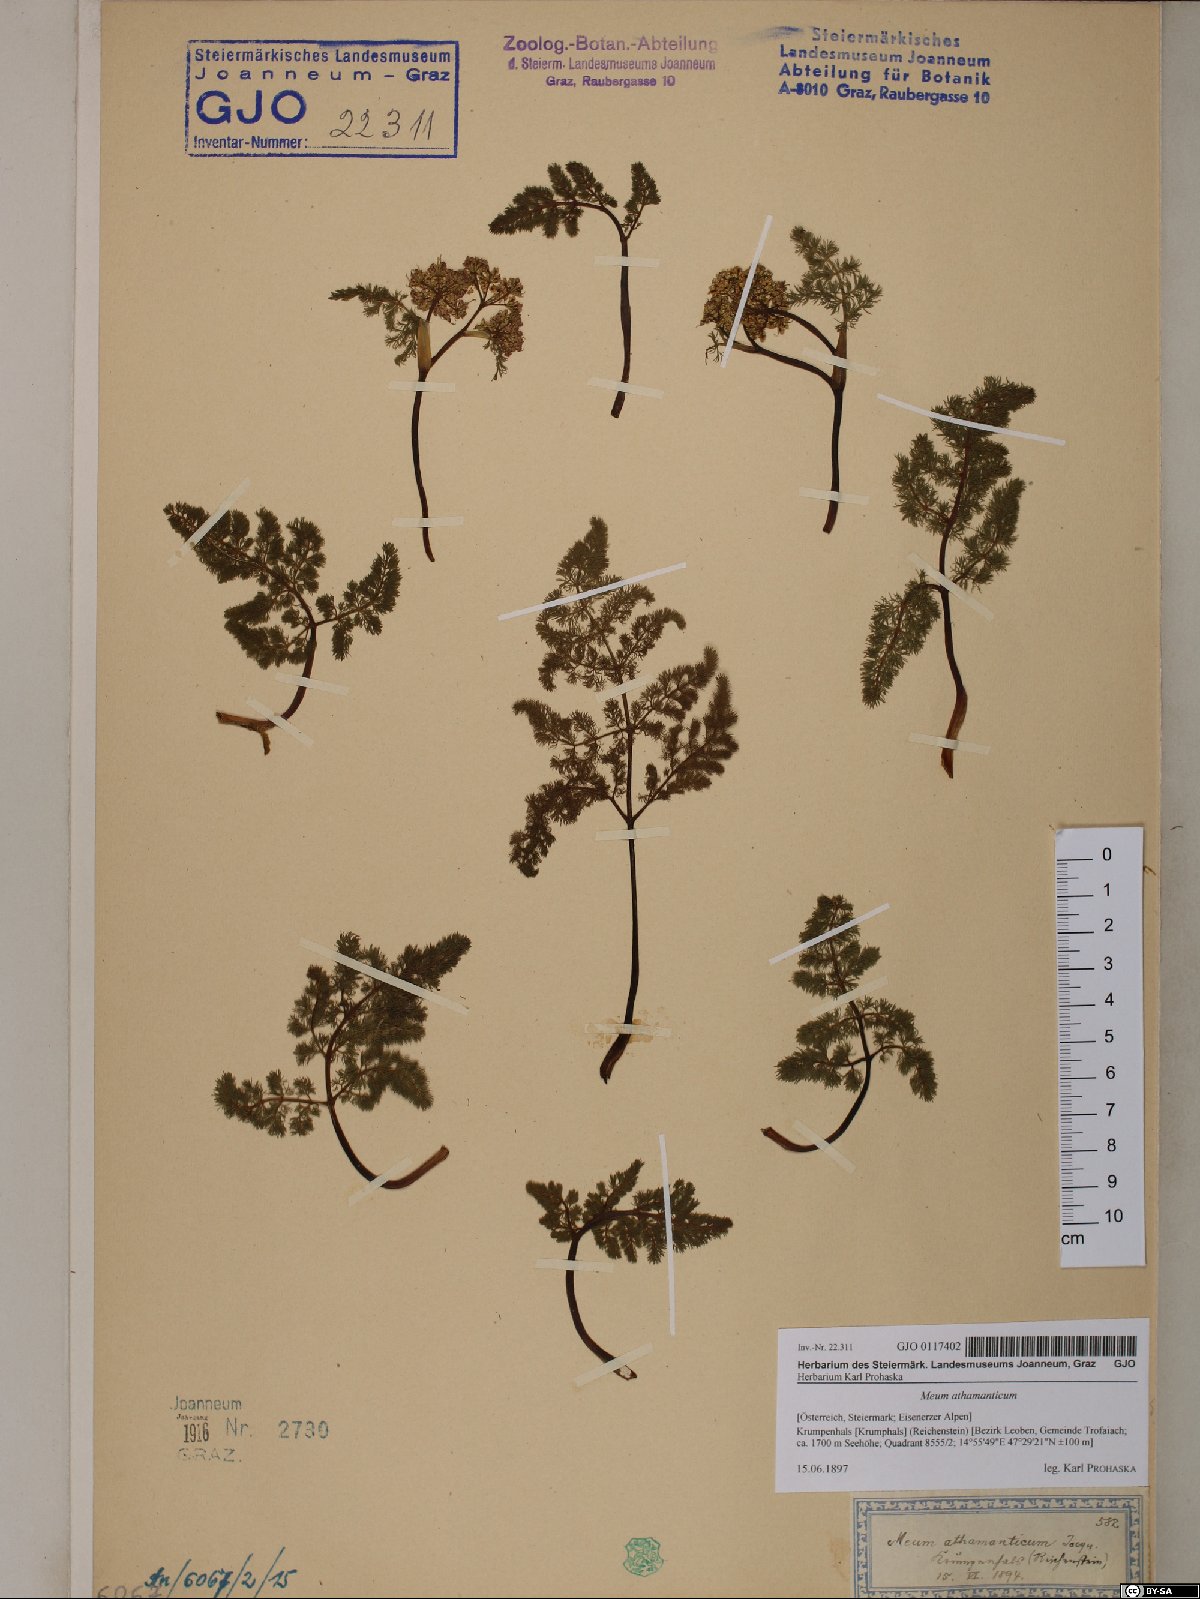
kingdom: Plantae
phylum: Tracheophyta
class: Magnoliopsida
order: Apiales
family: Apiaceae
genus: Meum
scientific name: Meum athamanticum
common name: Spignel
